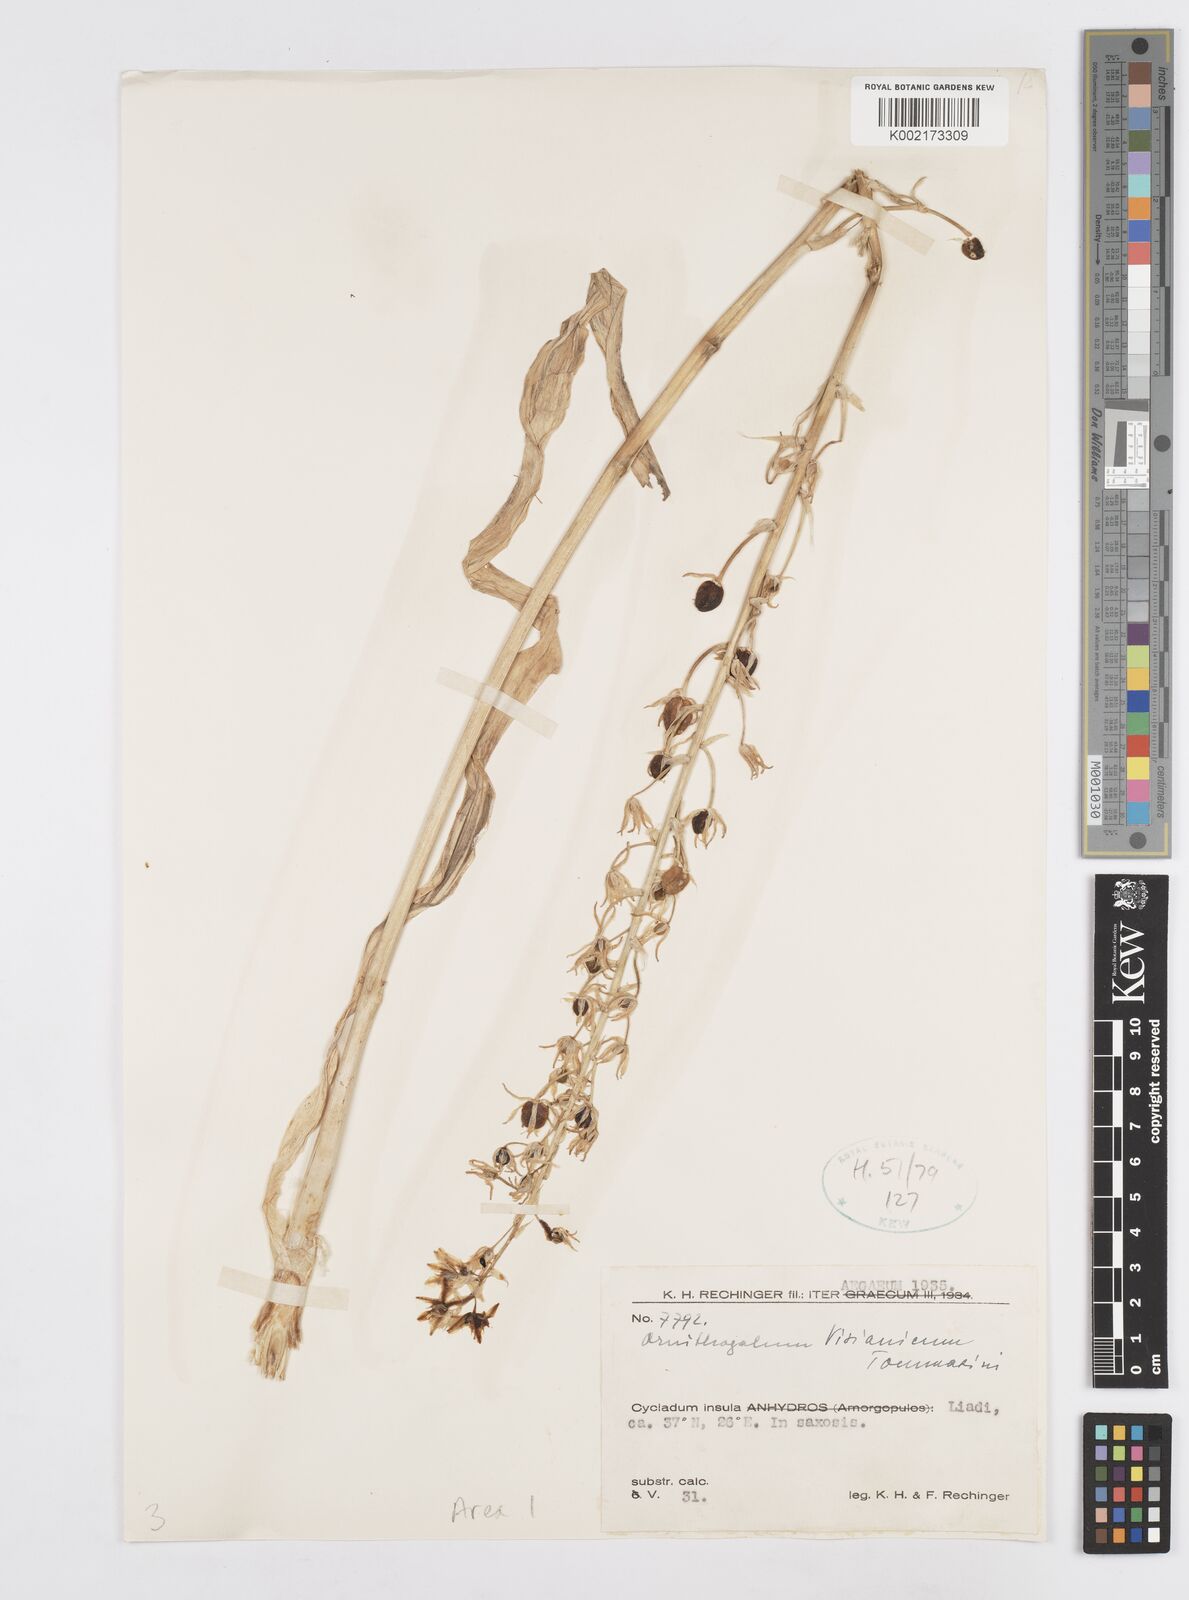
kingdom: Plantae
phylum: Tracheophyta
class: Liliopsida
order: Asparagales
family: Asparagaceae
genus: Ornithogalum
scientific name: Ornithogalum visianicum
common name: Visiani's star of bethlehem
